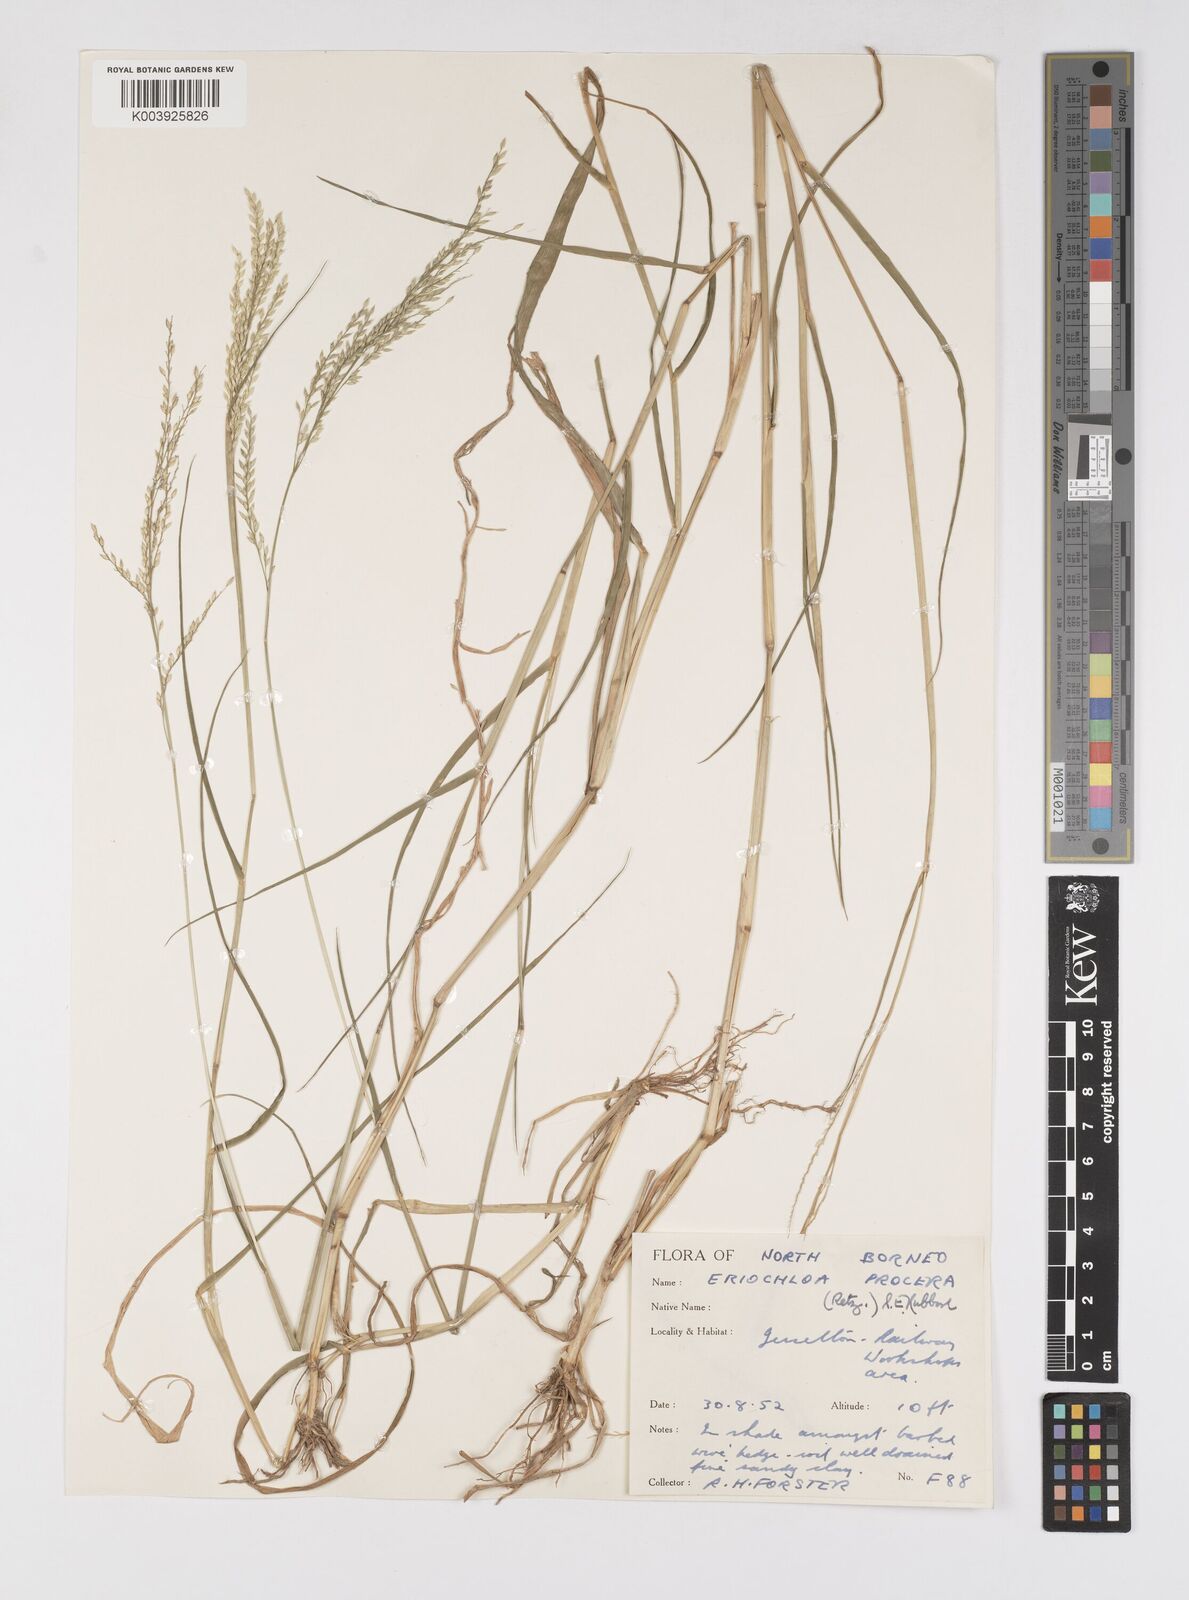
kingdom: Plantae
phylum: Tracheophyta
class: Liliopsida
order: Poales
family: Poaceae
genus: Eriochloa
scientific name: Eriochloa procera
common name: Spring grass
